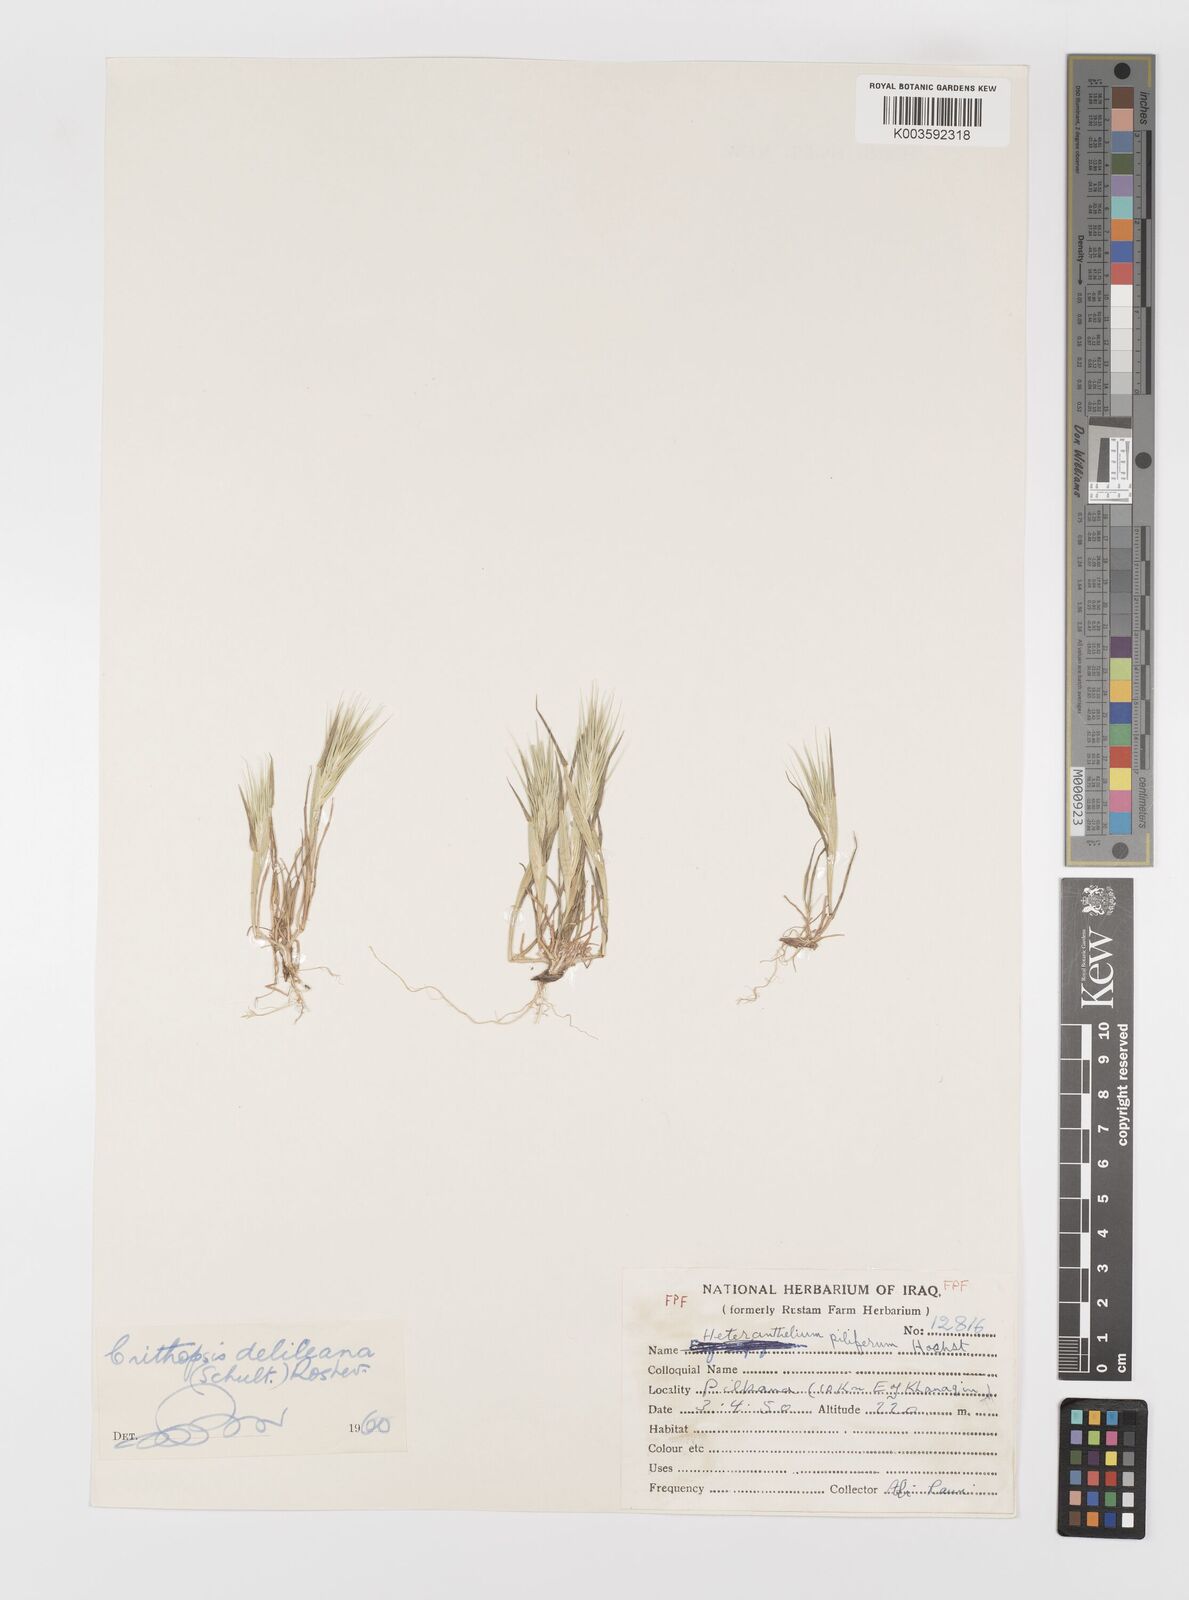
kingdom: Plantae
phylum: Tracheophyta
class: Liliopsida
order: Poales
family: Poaceae
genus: Crithopsis
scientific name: Crithopsis delileana
